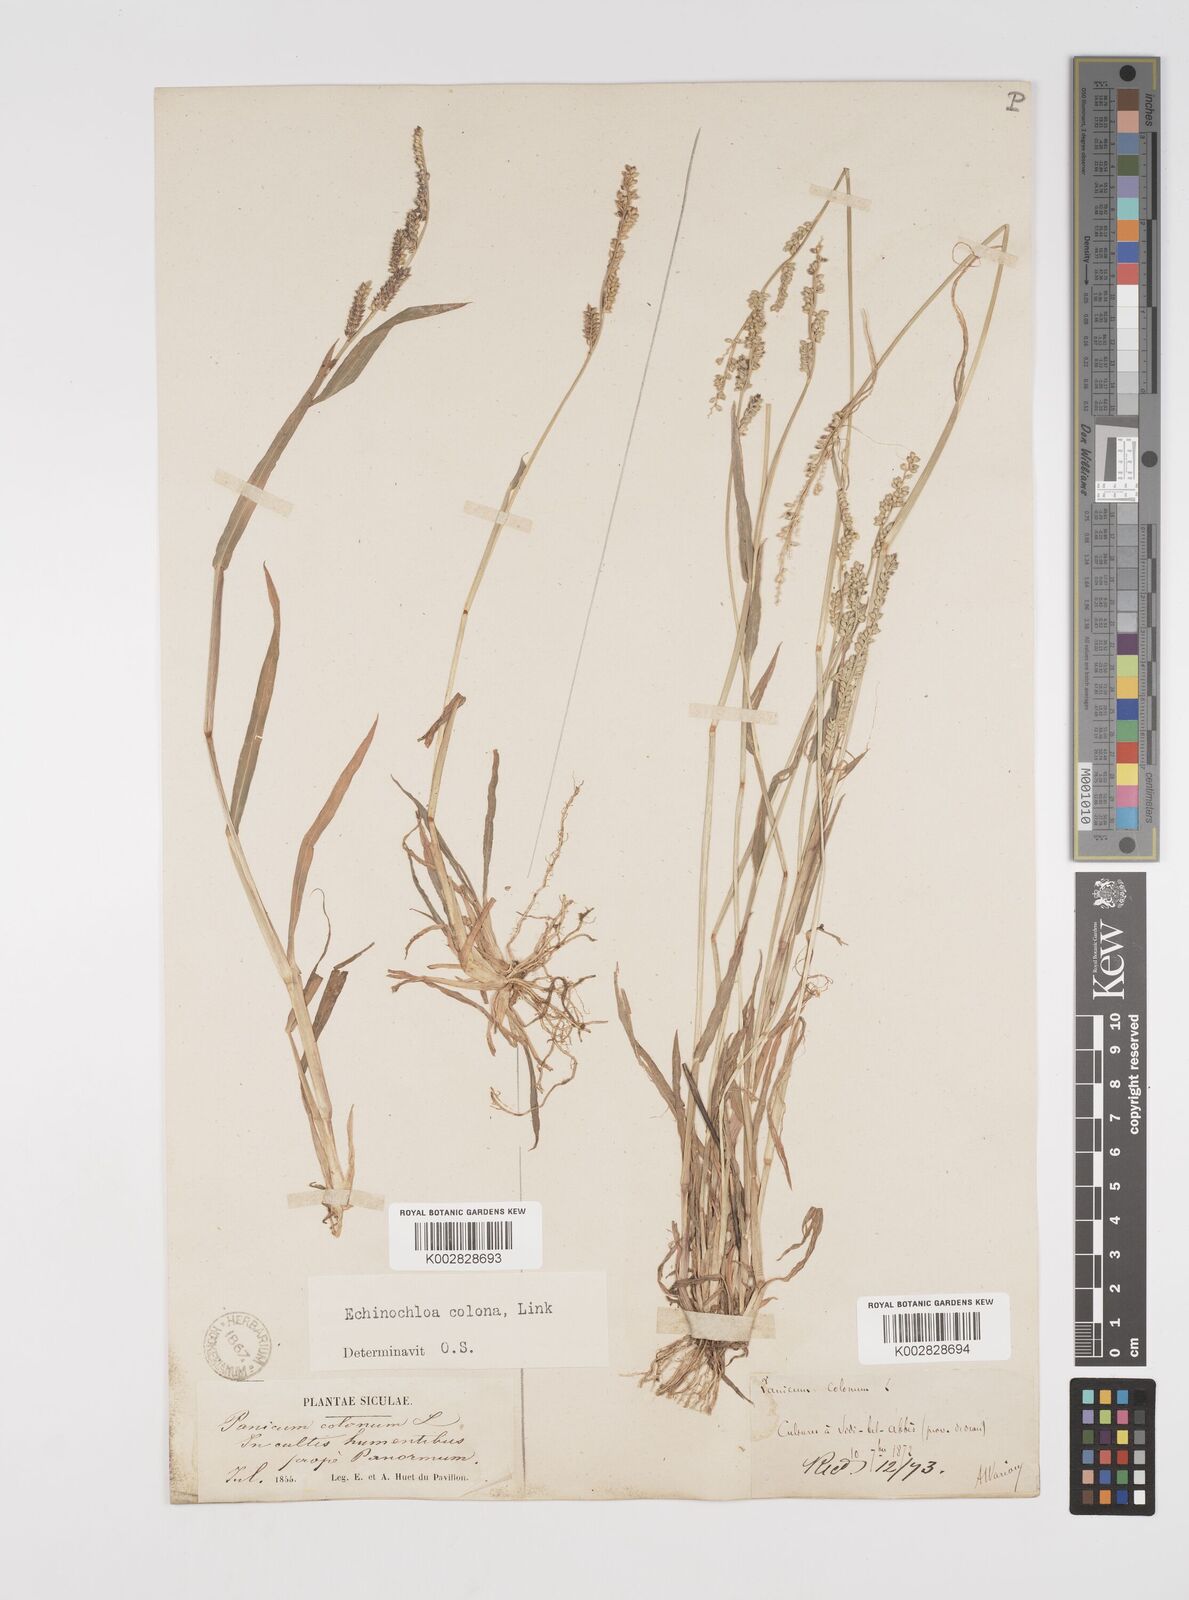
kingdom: Plantae
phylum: Tracheophyta
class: Liliopsida
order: Poales
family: Poaceae
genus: Echinochloa
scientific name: Echinochloa colonum
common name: Jungle rice
